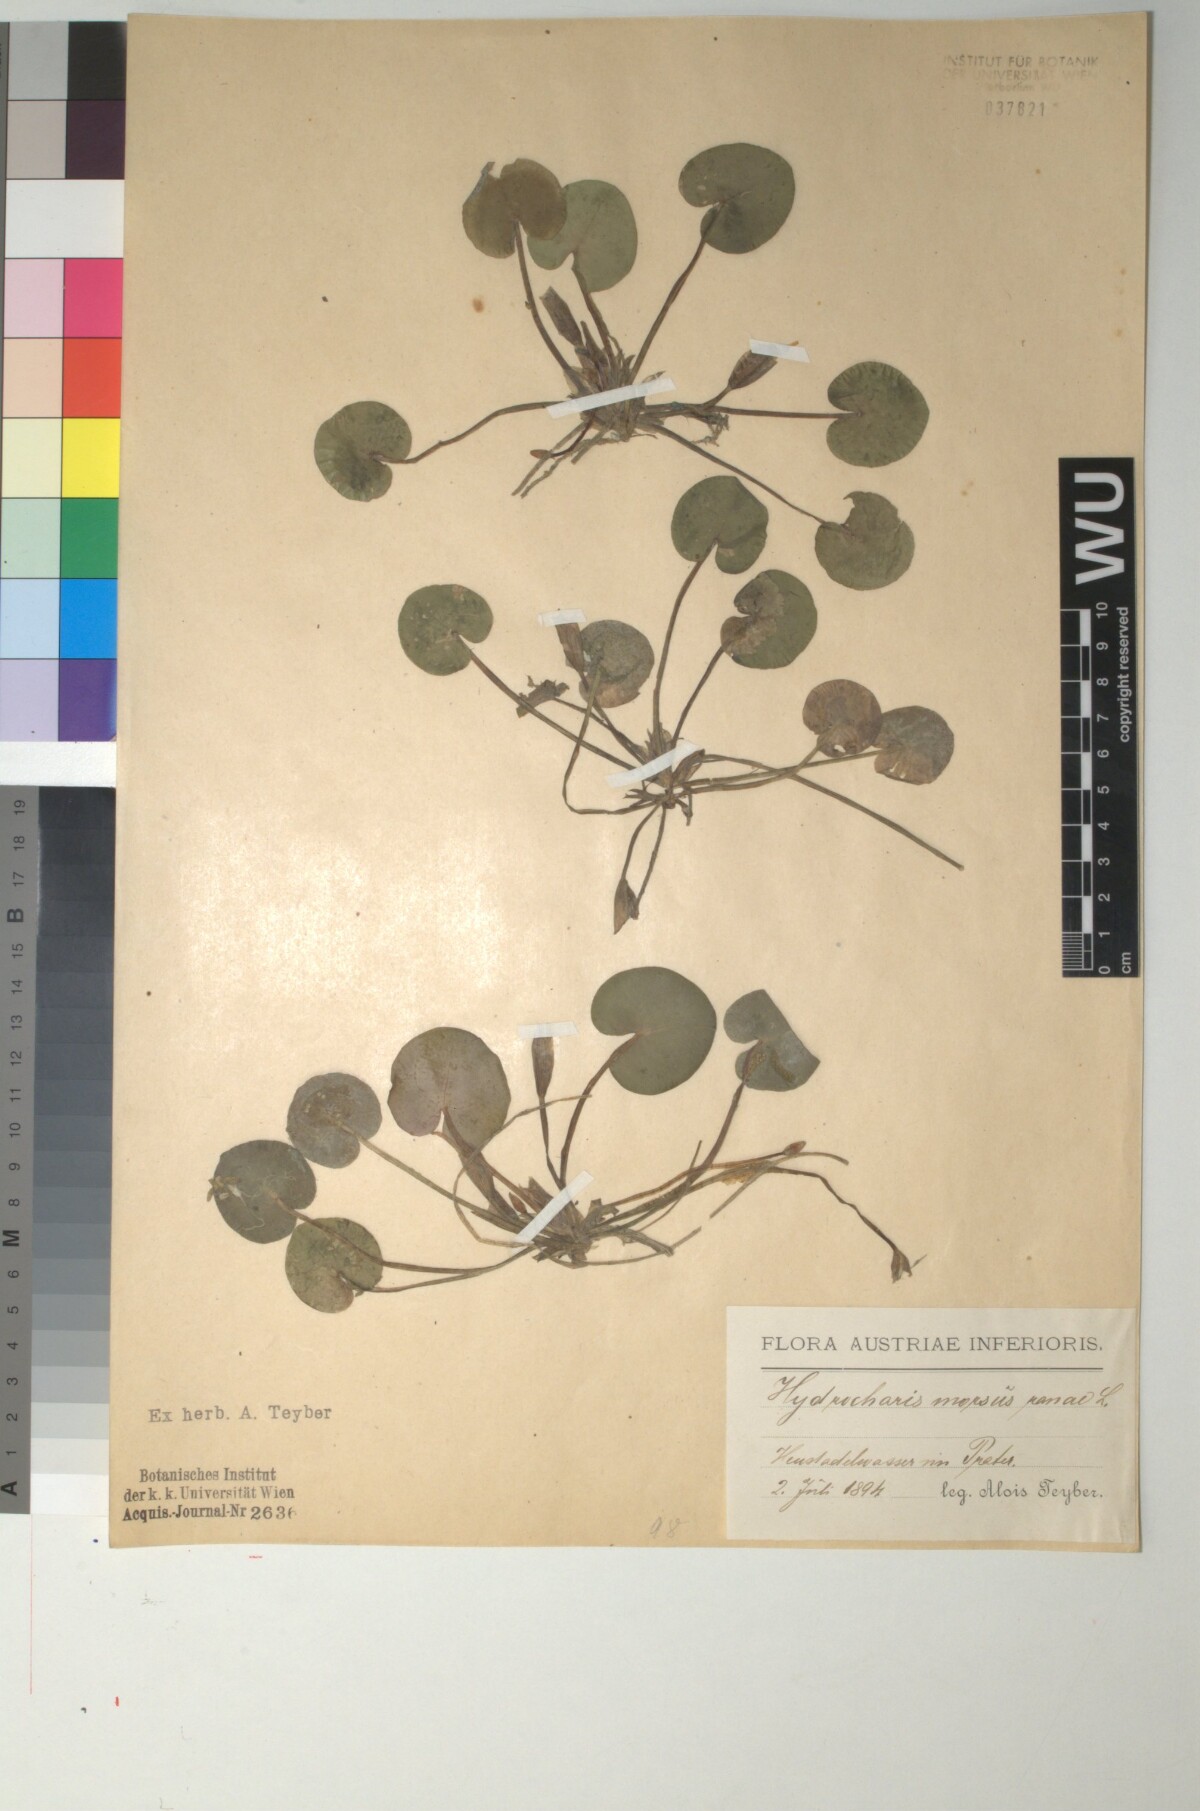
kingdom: Plantae
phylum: Tracheophyta
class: Liliopsida
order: Alismatales
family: Hydrocharitaceae
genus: Hydrocharis
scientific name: Hydrocharis morsus-ranae
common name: Frogbit
